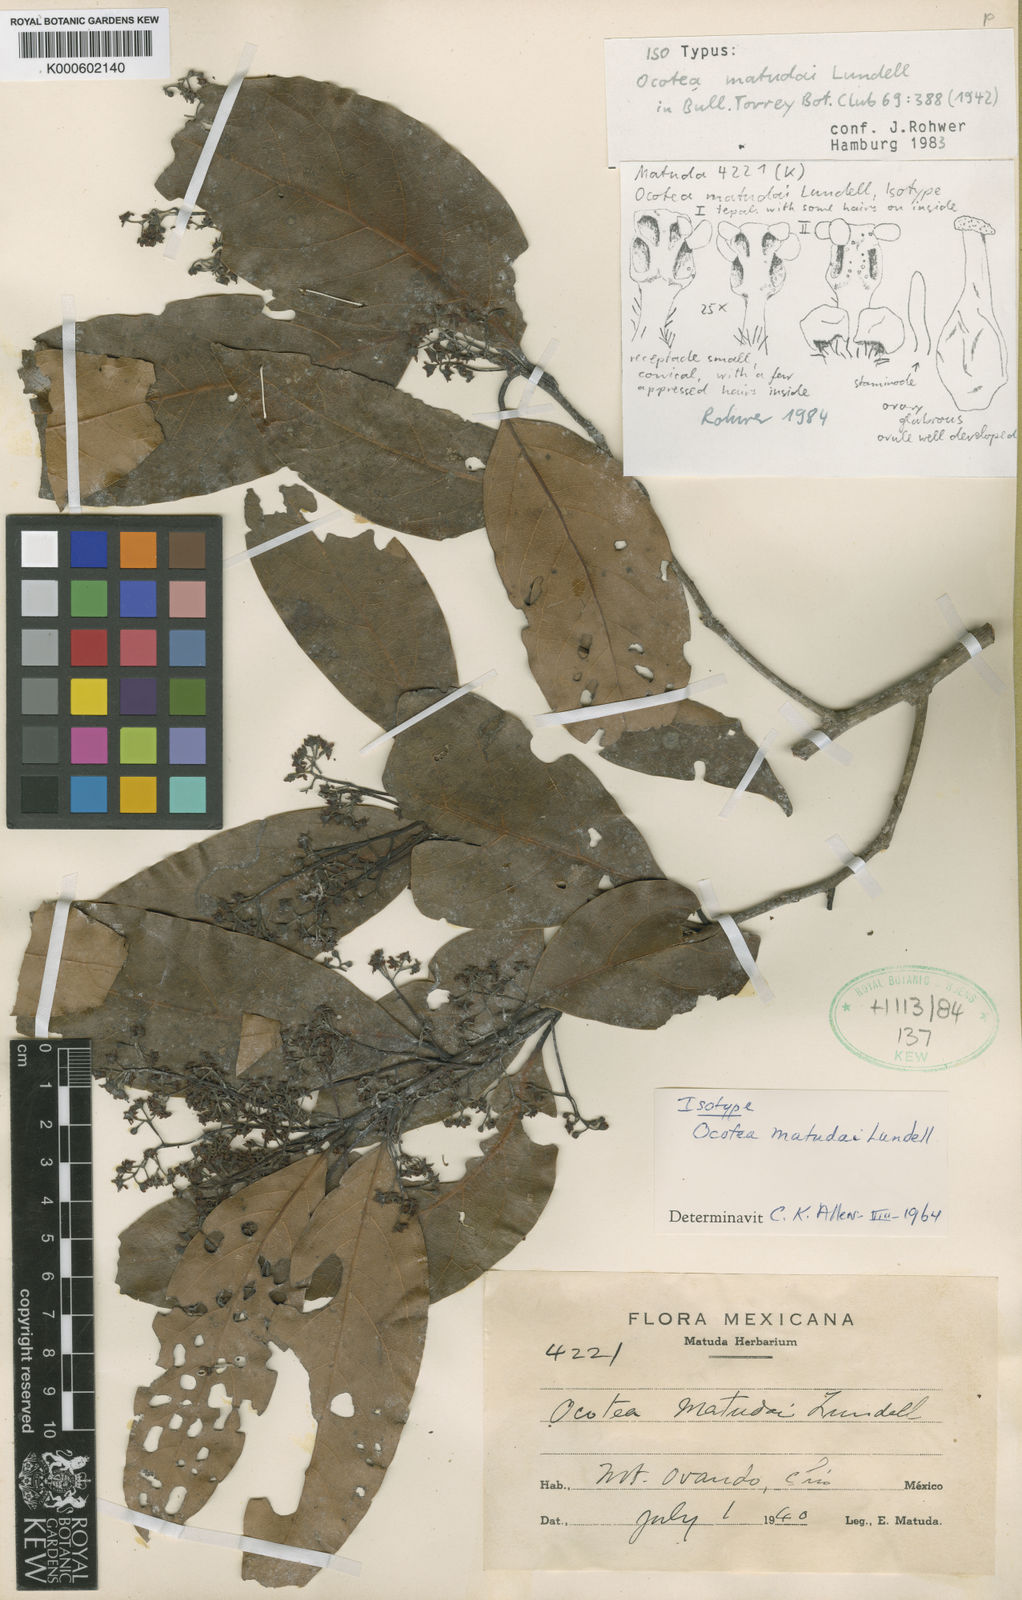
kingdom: Plantae
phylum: Tracheophyta
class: Magnoliopsida
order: Laurales
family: Lauraceae
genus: Ocotea
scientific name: Ocotea matudae
